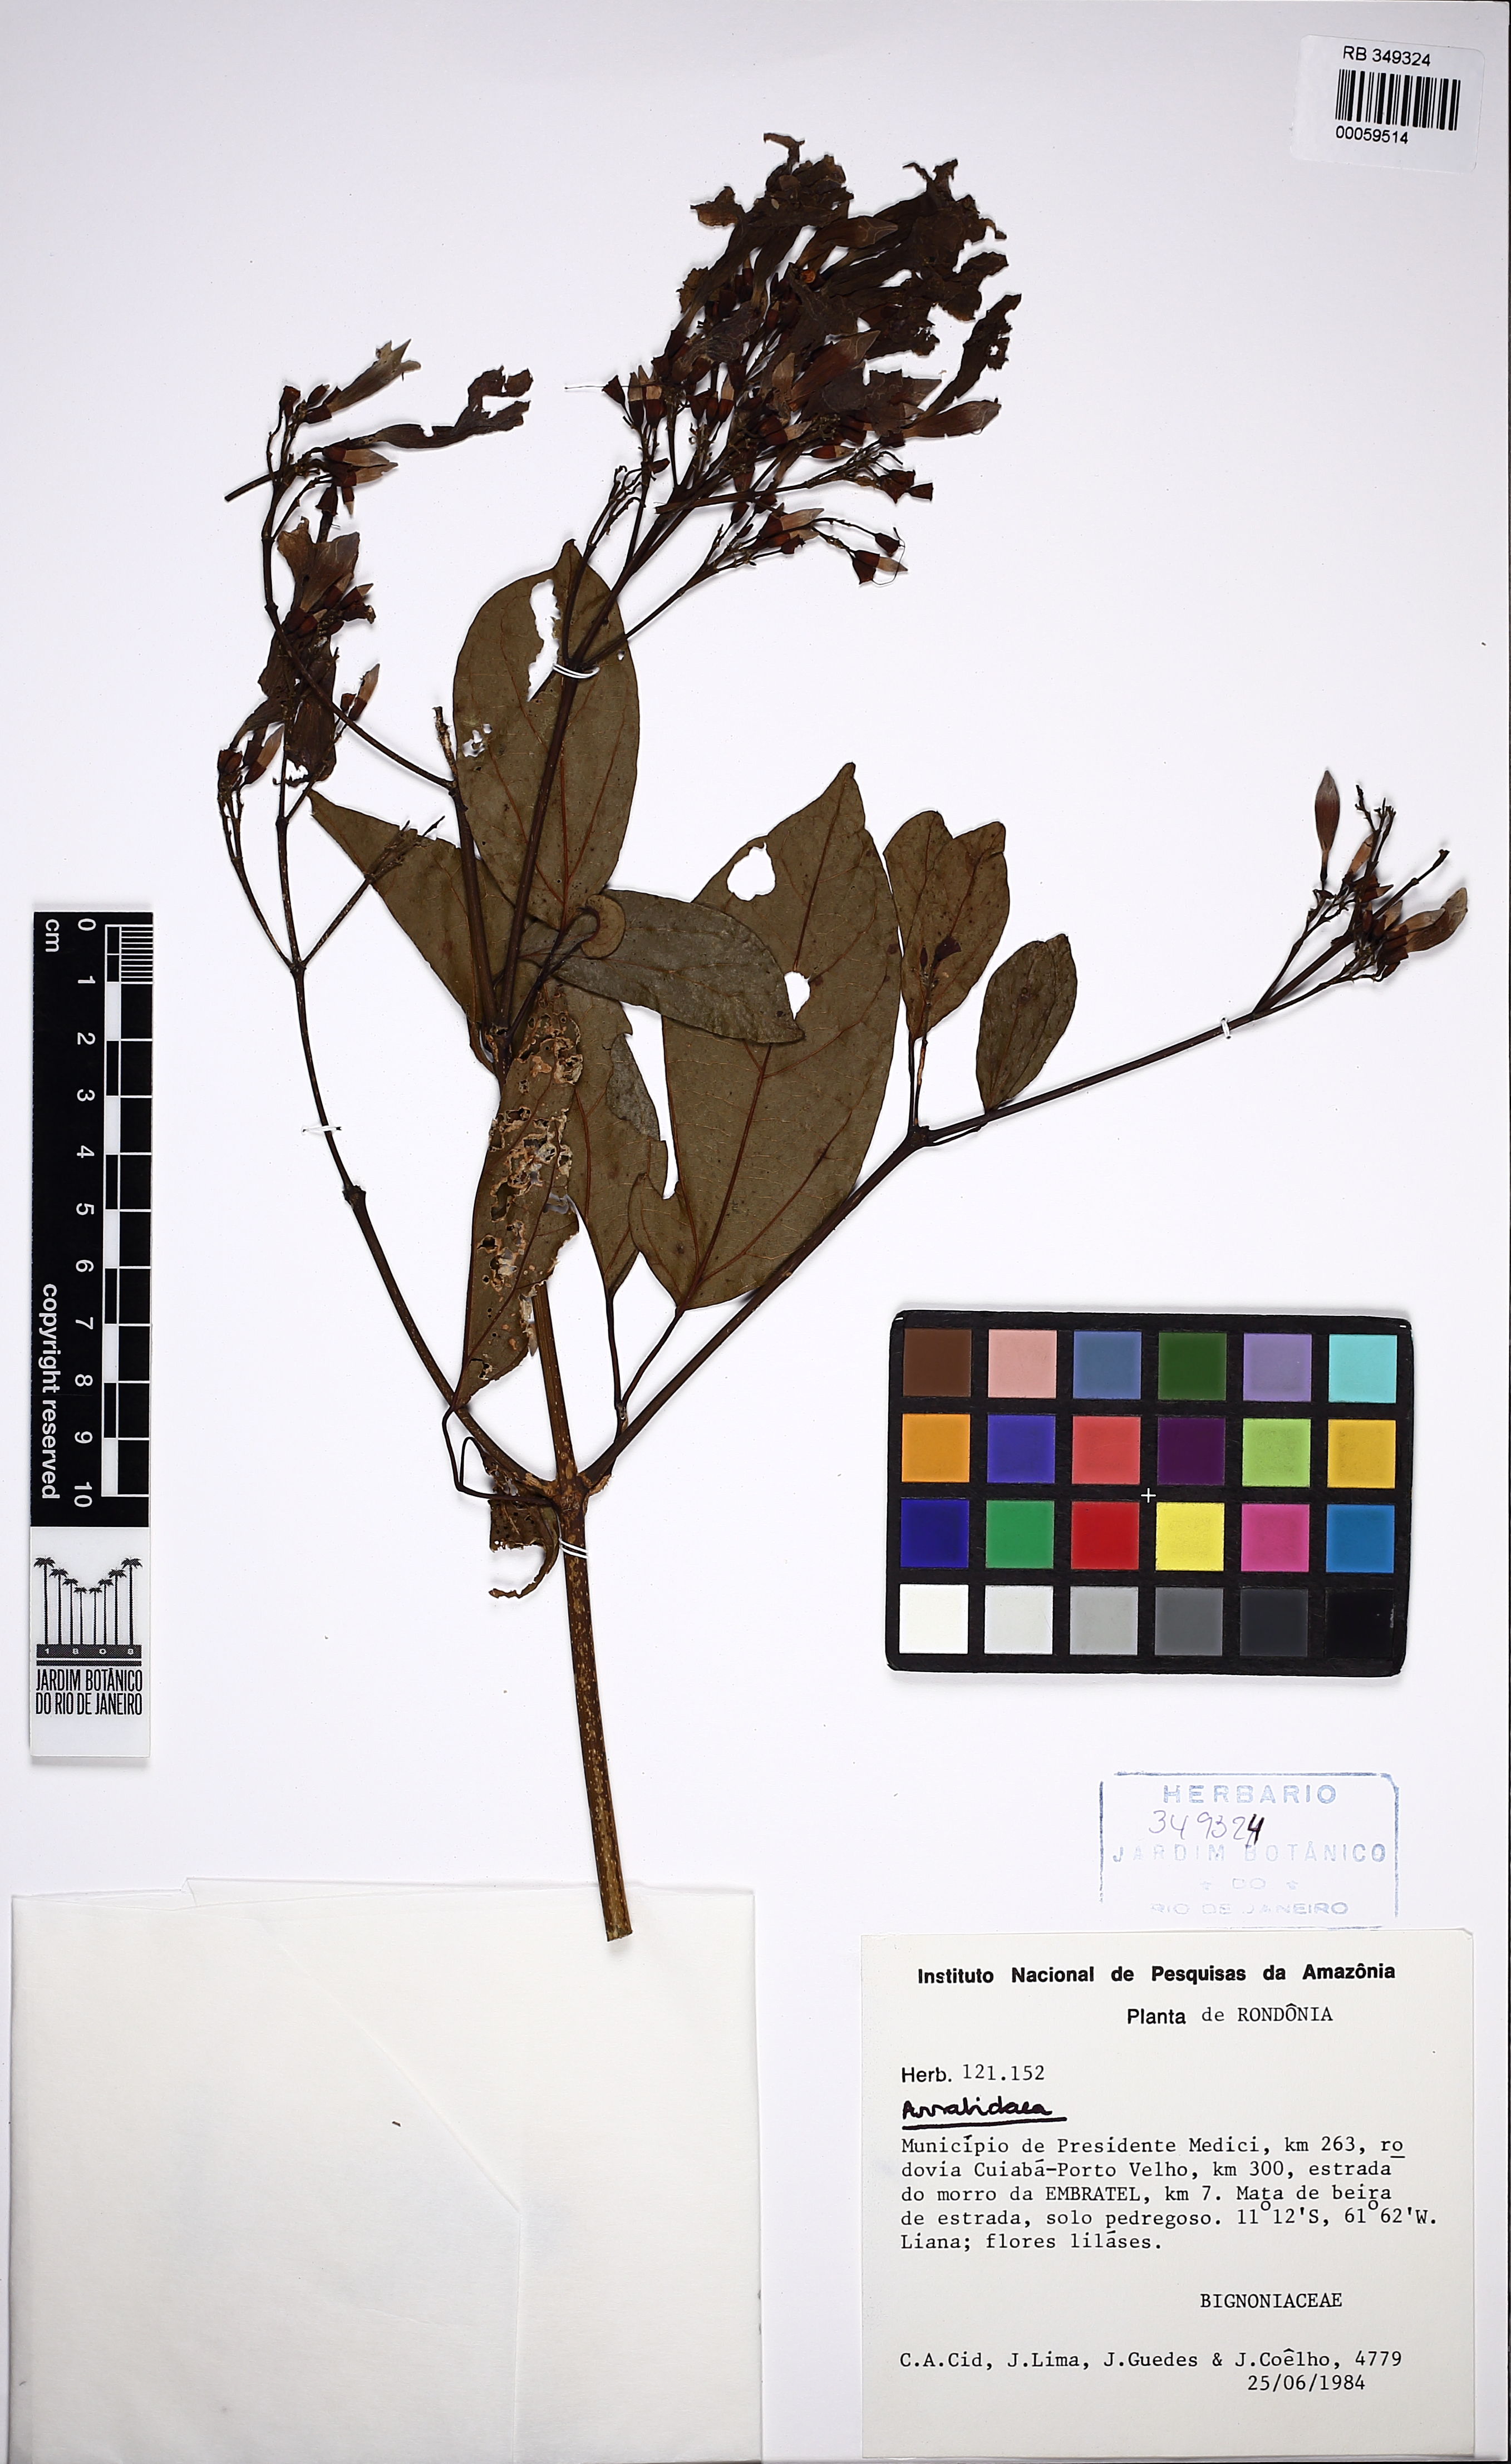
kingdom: Plantae
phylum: Tracheophyta
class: Magnoliopsida
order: Lamiales
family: Bignoniaceae
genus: Fridericia
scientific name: Fridericia platyphylla
